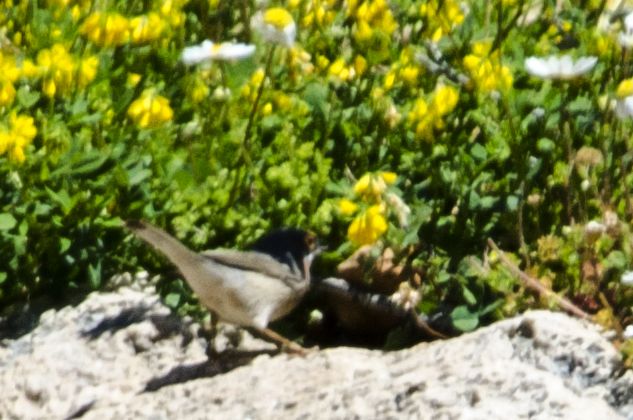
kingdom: Animalia
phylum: Chordata
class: Aves
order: Passeriformes
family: Sylviidae
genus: Sylvia
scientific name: Sylvia cantillans
